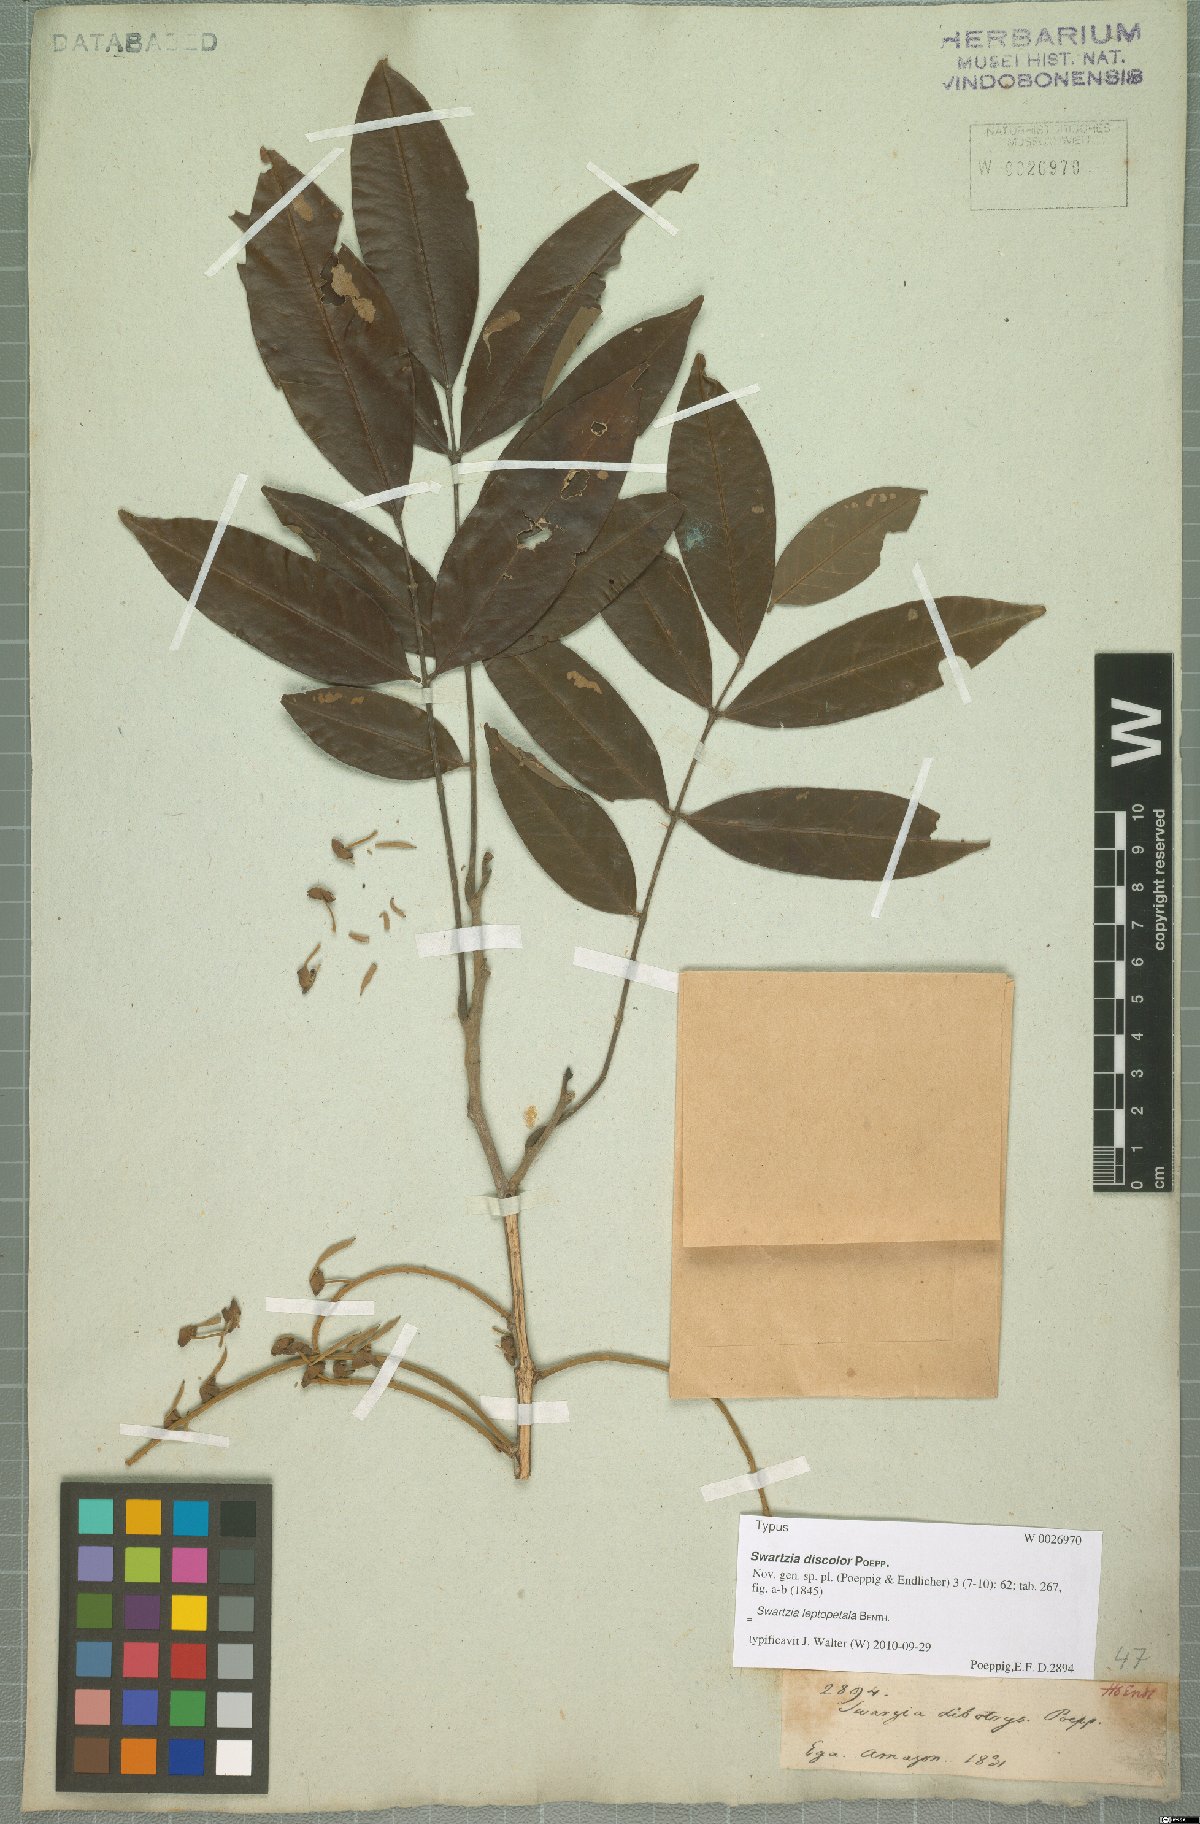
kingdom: Plantae
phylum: Tracheophyta
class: Magnoliopsida
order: Fabales
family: Fabaceae
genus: Swartzia
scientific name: Swartzia leptopetala
